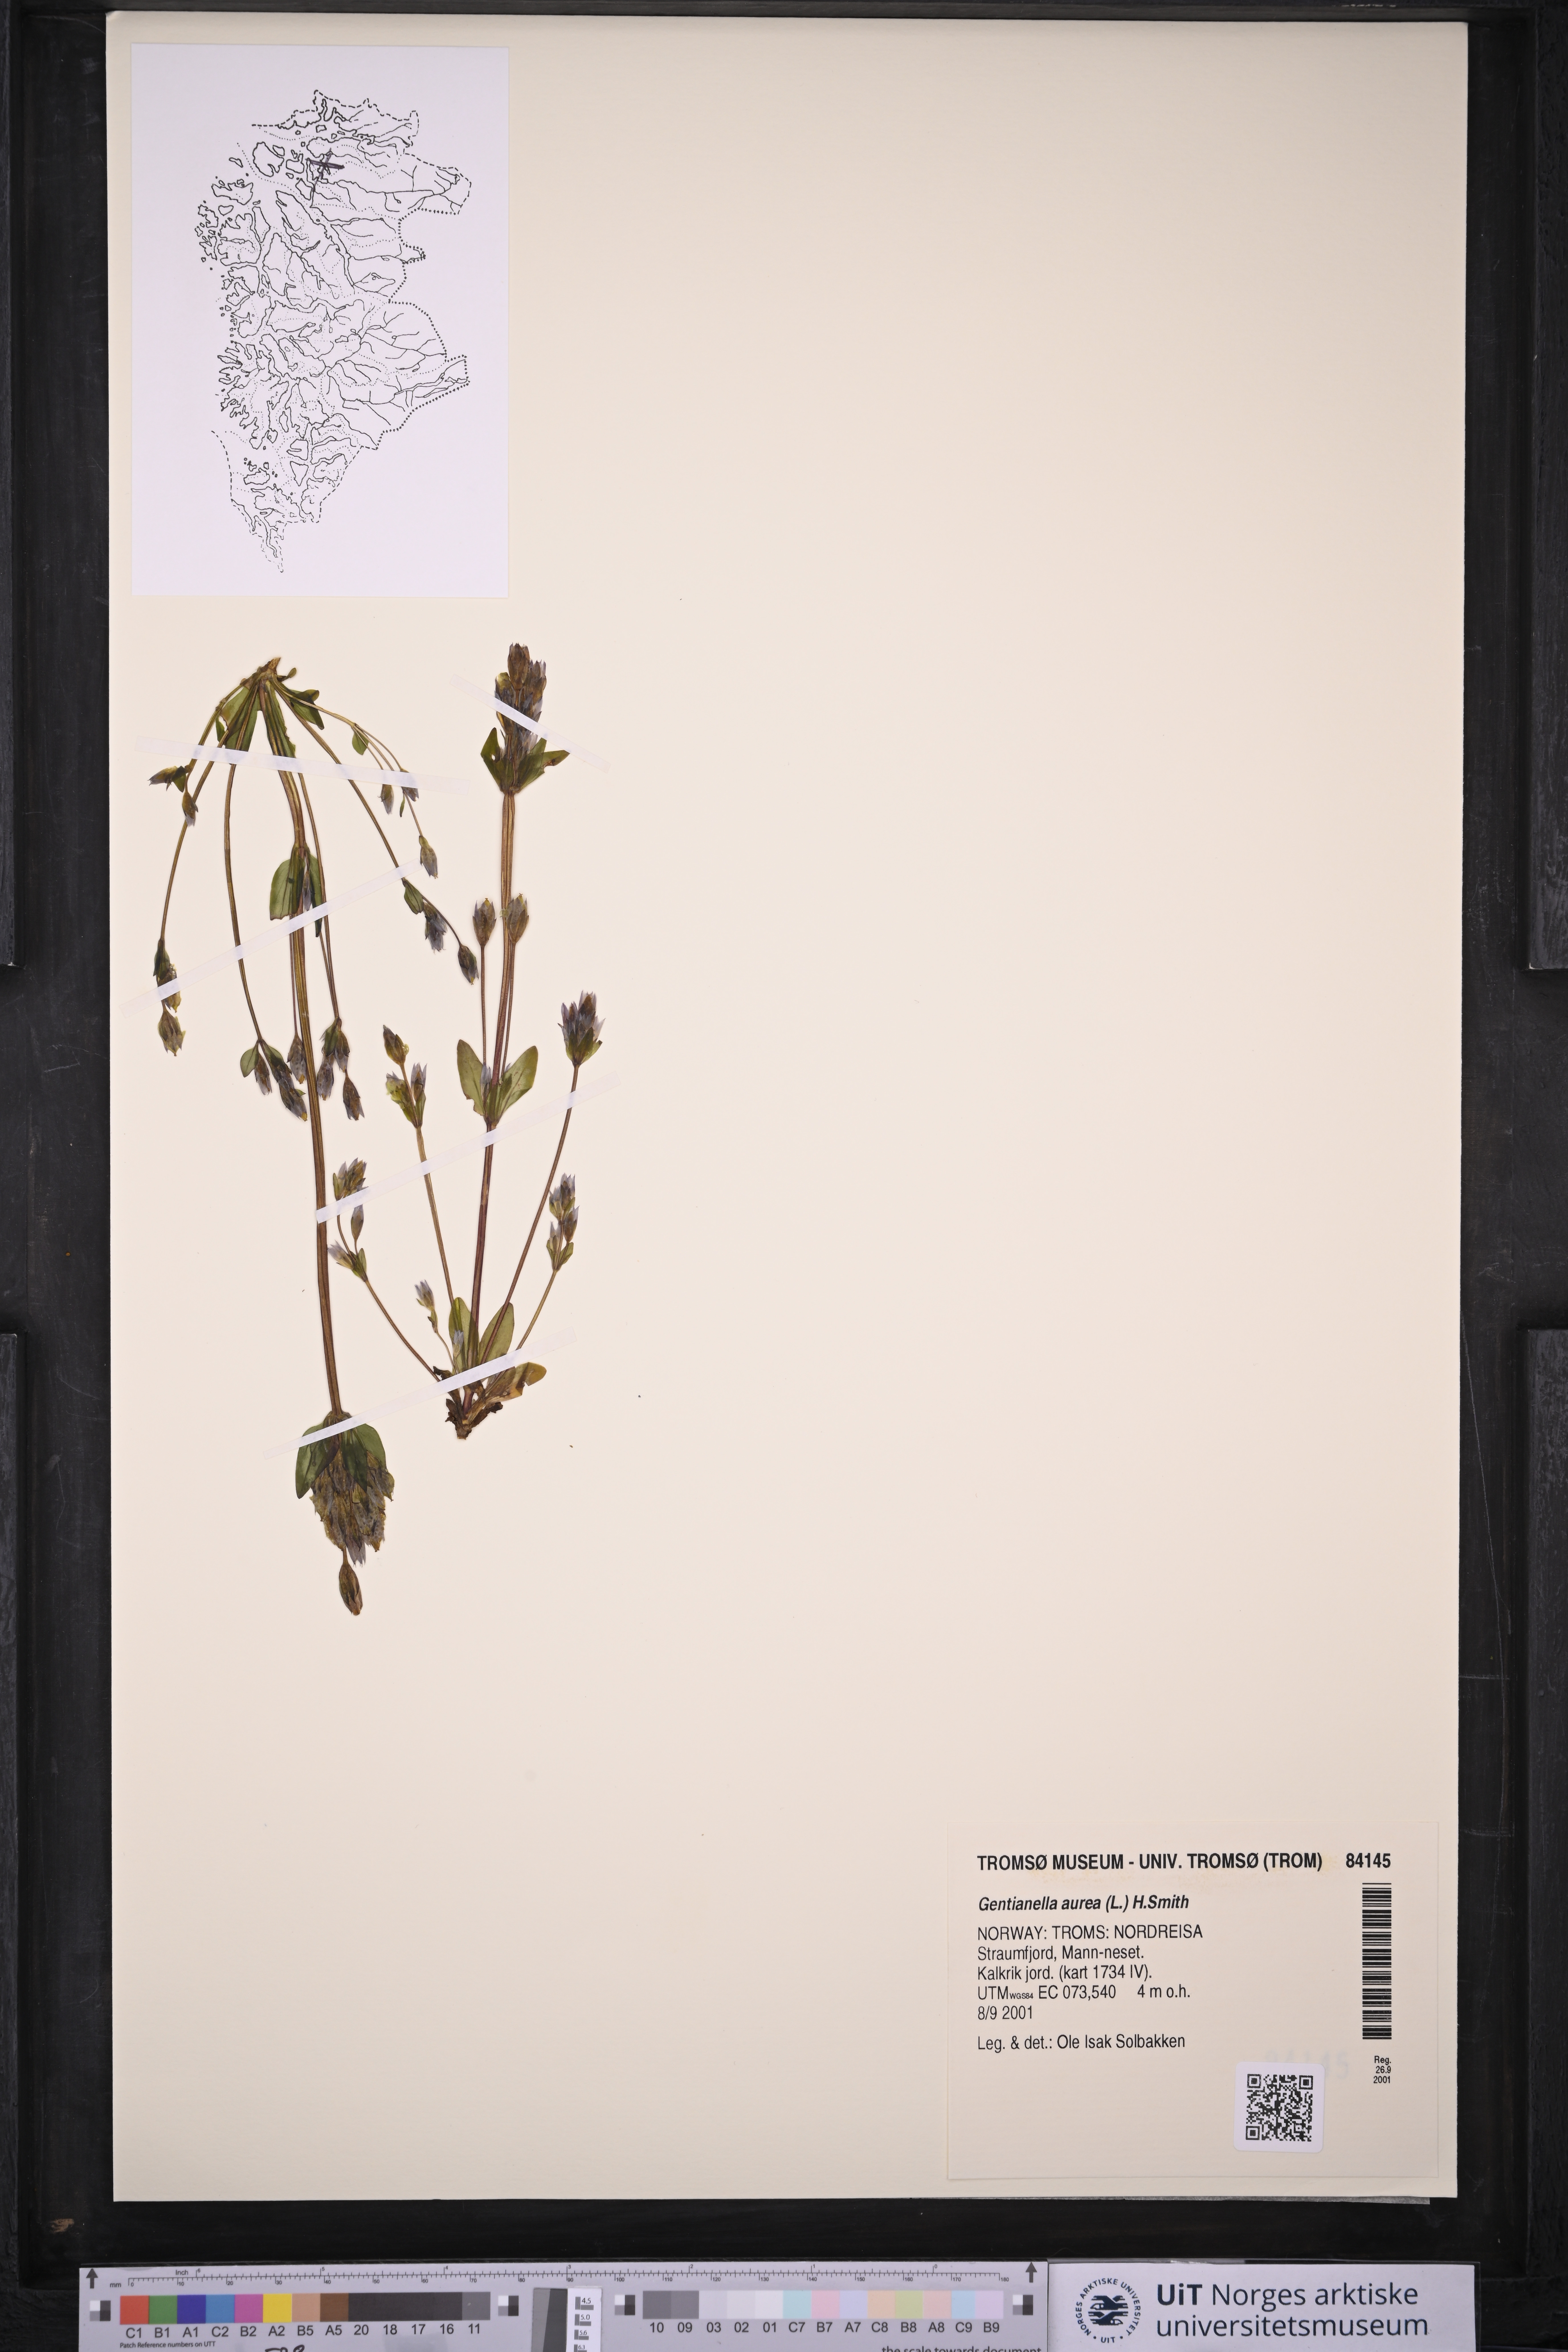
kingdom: Plantae
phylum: Tracheophyta
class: Magnoliopsida
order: Gentianales
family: Gentianaceae
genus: Gentianella
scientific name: Gentianella aurea
